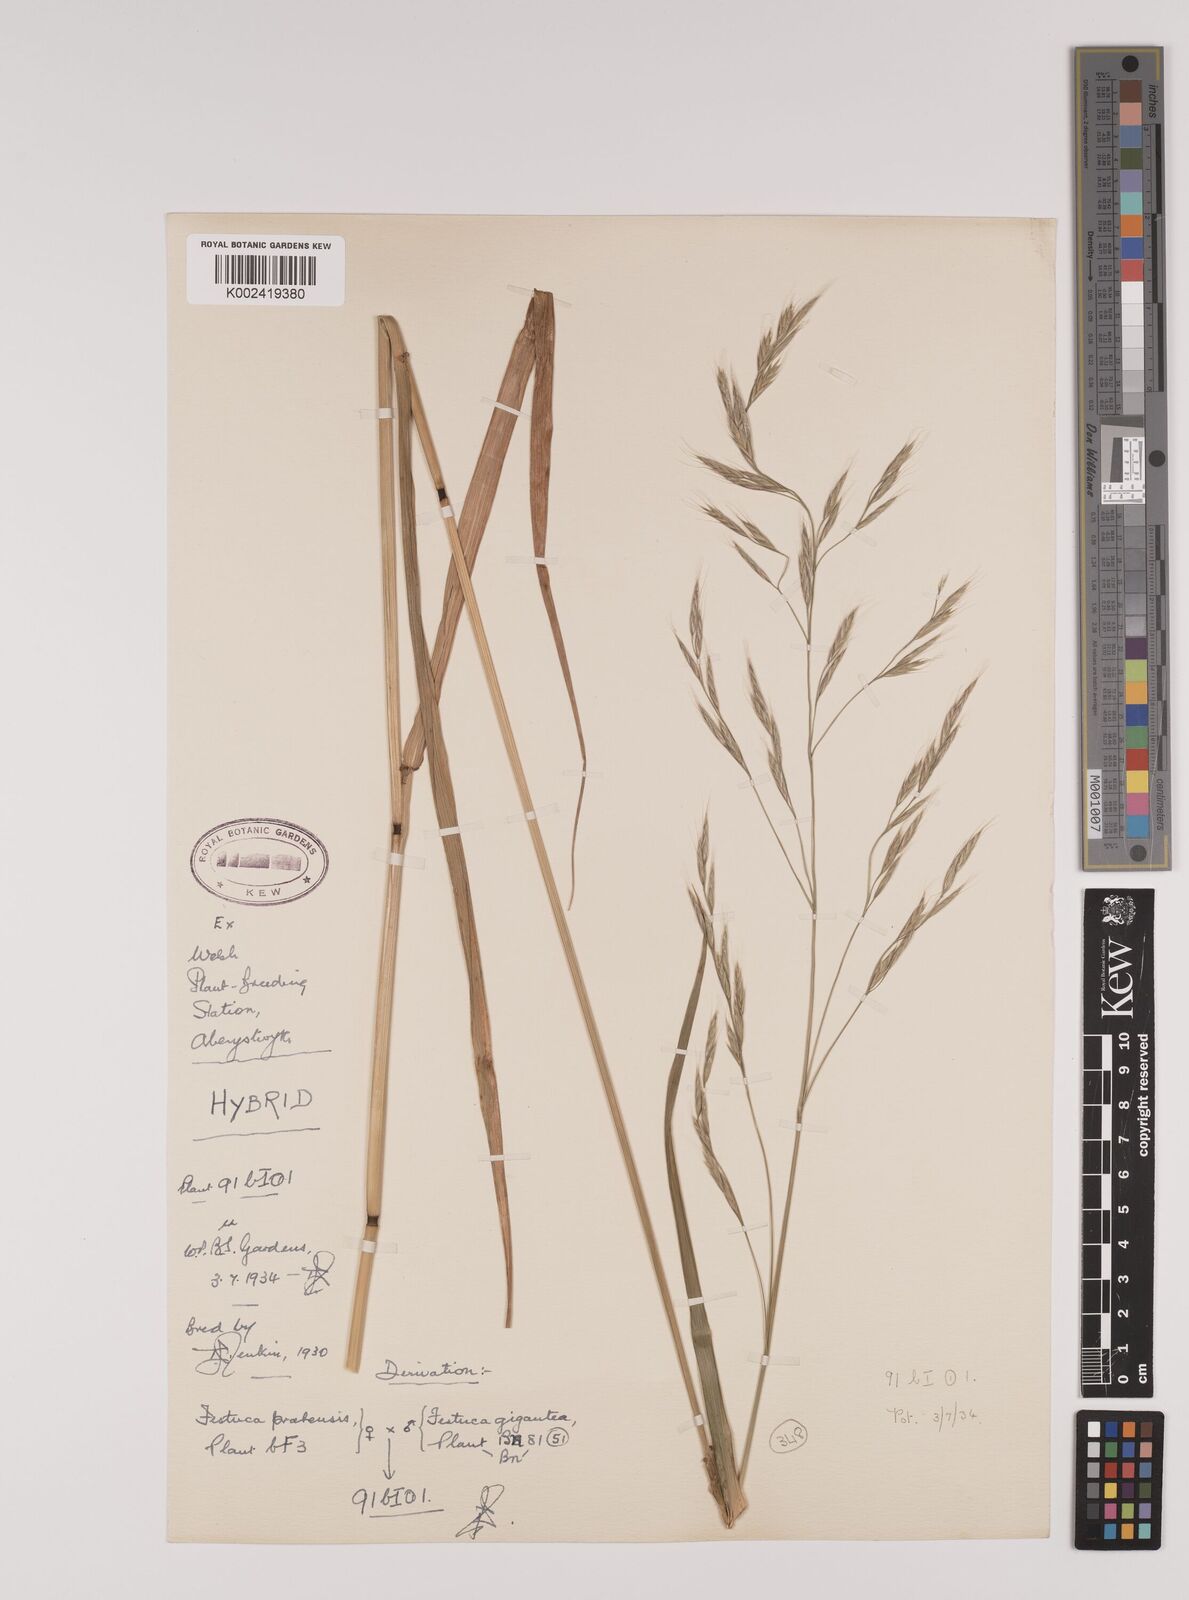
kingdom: Plantae
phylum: Tracheophyta
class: Liliopsida
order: Poales
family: Poaceae
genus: Lolium
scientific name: Lolium giganteum
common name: Giant fescue
